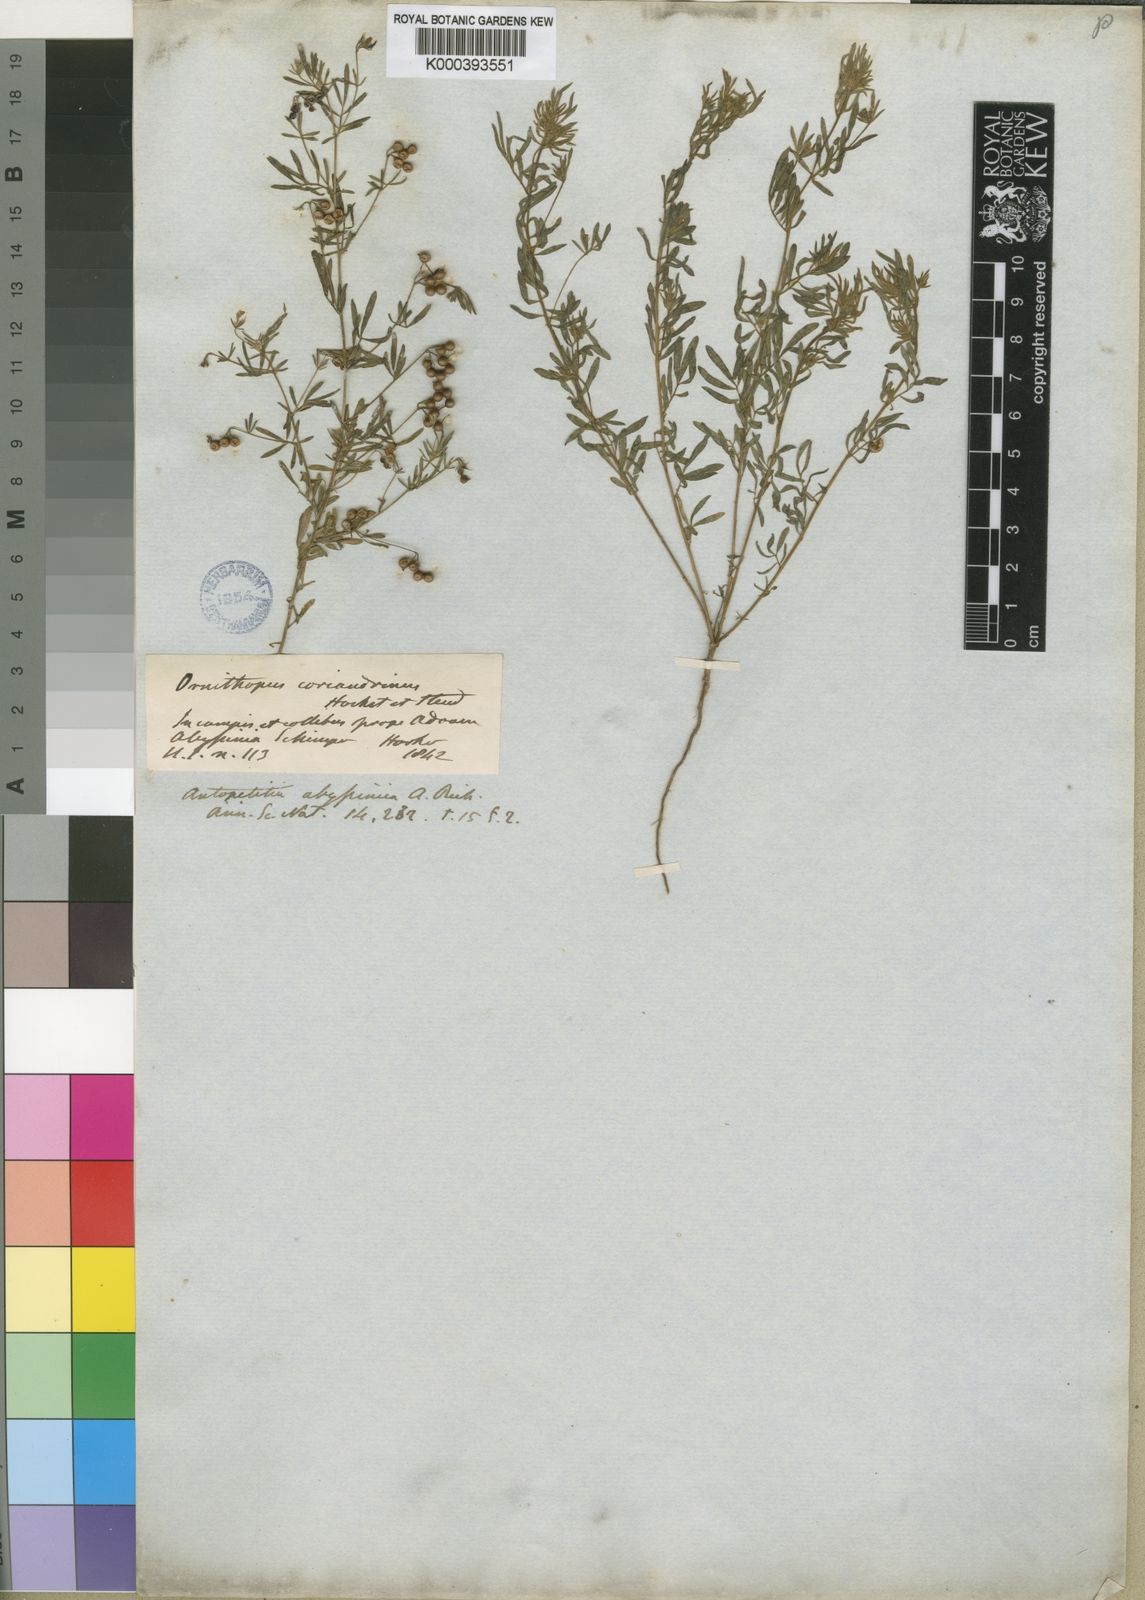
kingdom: Plantae
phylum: Tracheophyta
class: Magnoliopsida
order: Fabales
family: Fabaceae
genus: Antopetitia
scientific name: Antopetitia abyssinica
